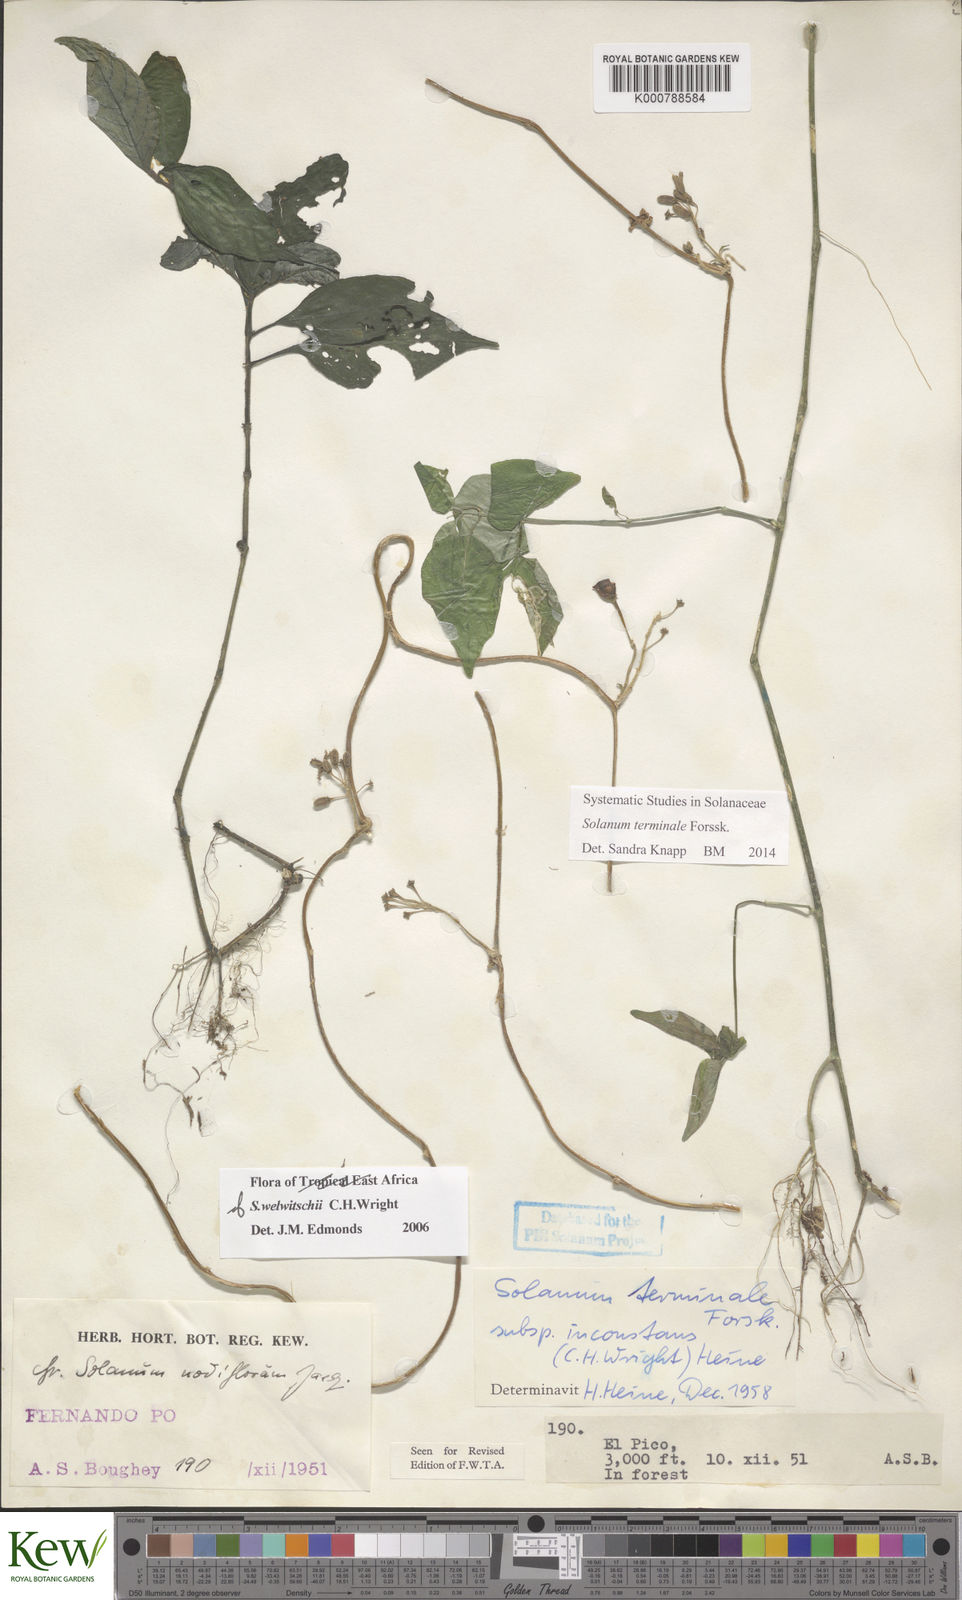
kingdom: Plantae
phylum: Tracheophyta
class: Magnoliopsida
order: Solanales
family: Solanaceae
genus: Solanum
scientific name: Solanum terminale
